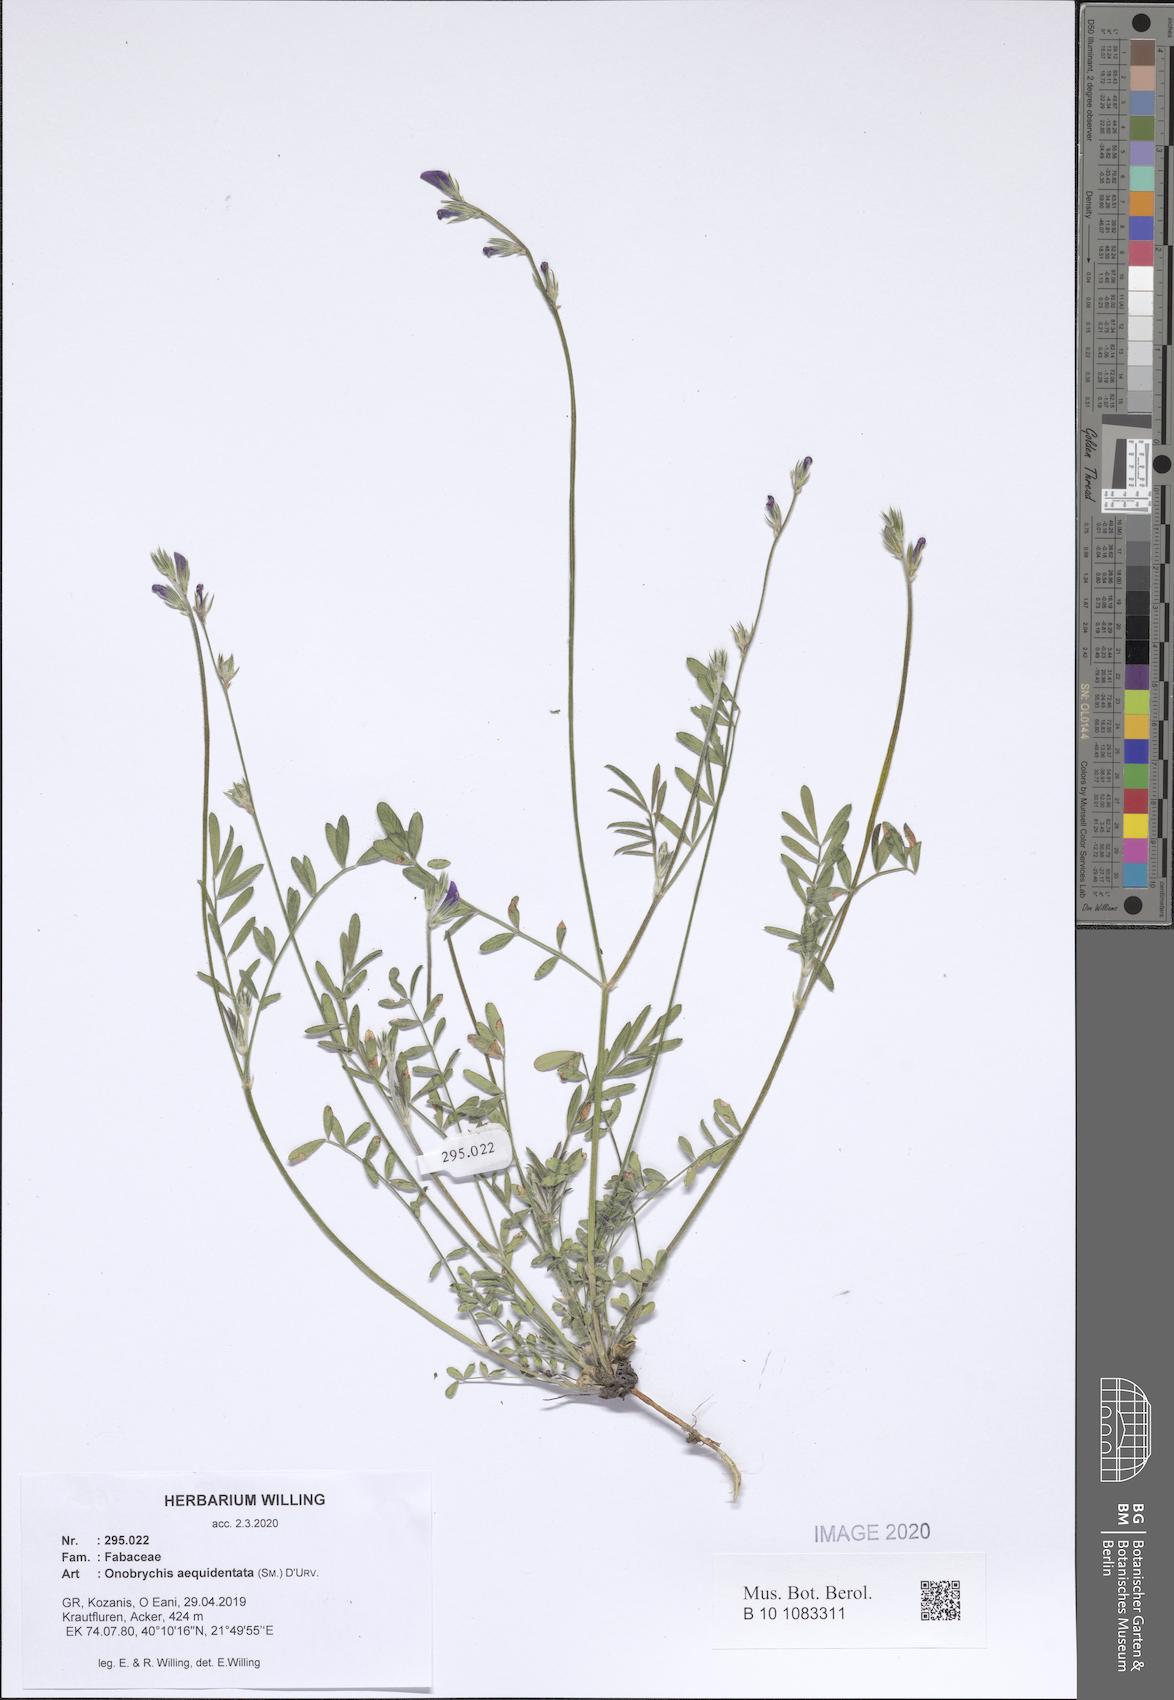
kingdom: Plantae
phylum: Tracheophyta
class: Magnoliopsida
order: Fabales
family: Fabaceae
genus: Onobrychis
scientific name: Onobrychis aequidentata
